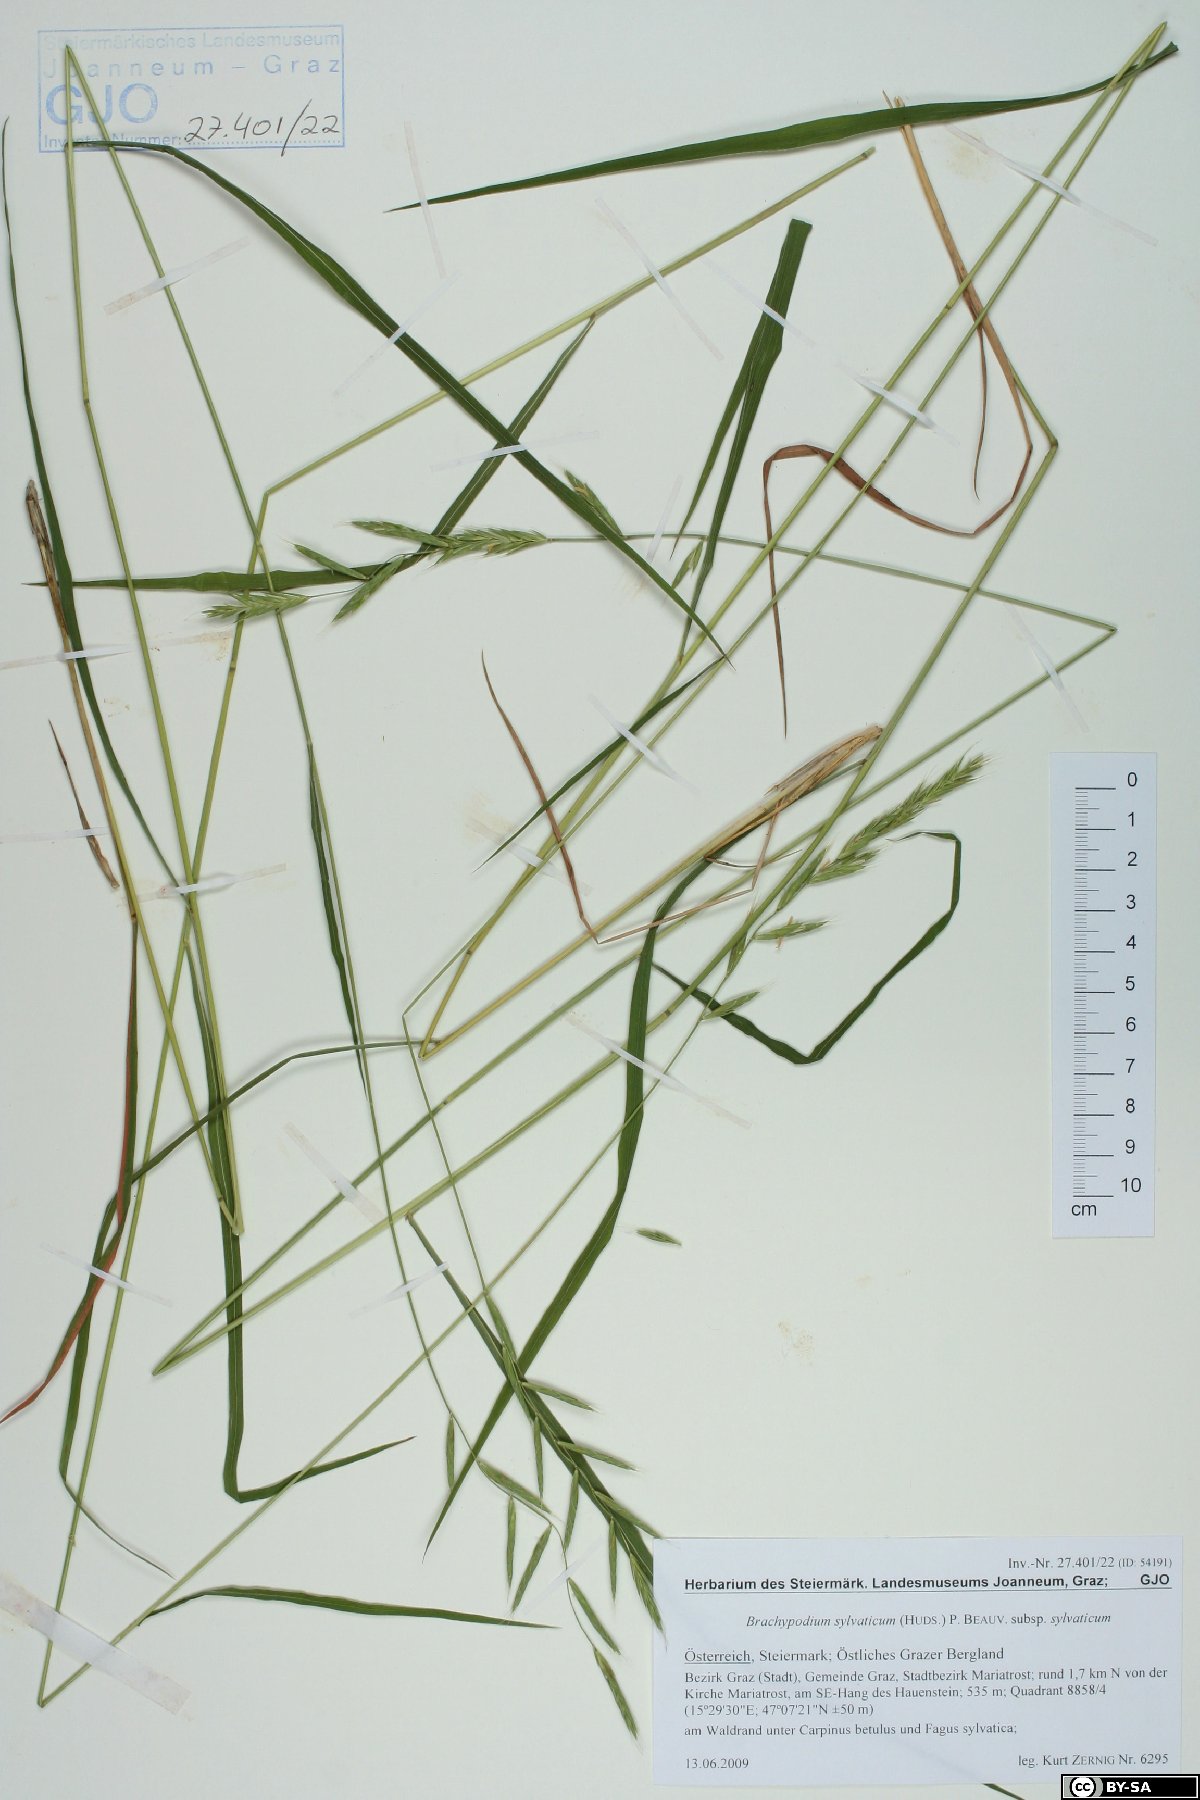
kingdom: Plantae
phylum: Tracheophyta
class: Liliopsida
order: Poales
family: Poaceae
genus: Brachypodium
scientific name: Brachypodium sylvaticum
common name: False-brome
